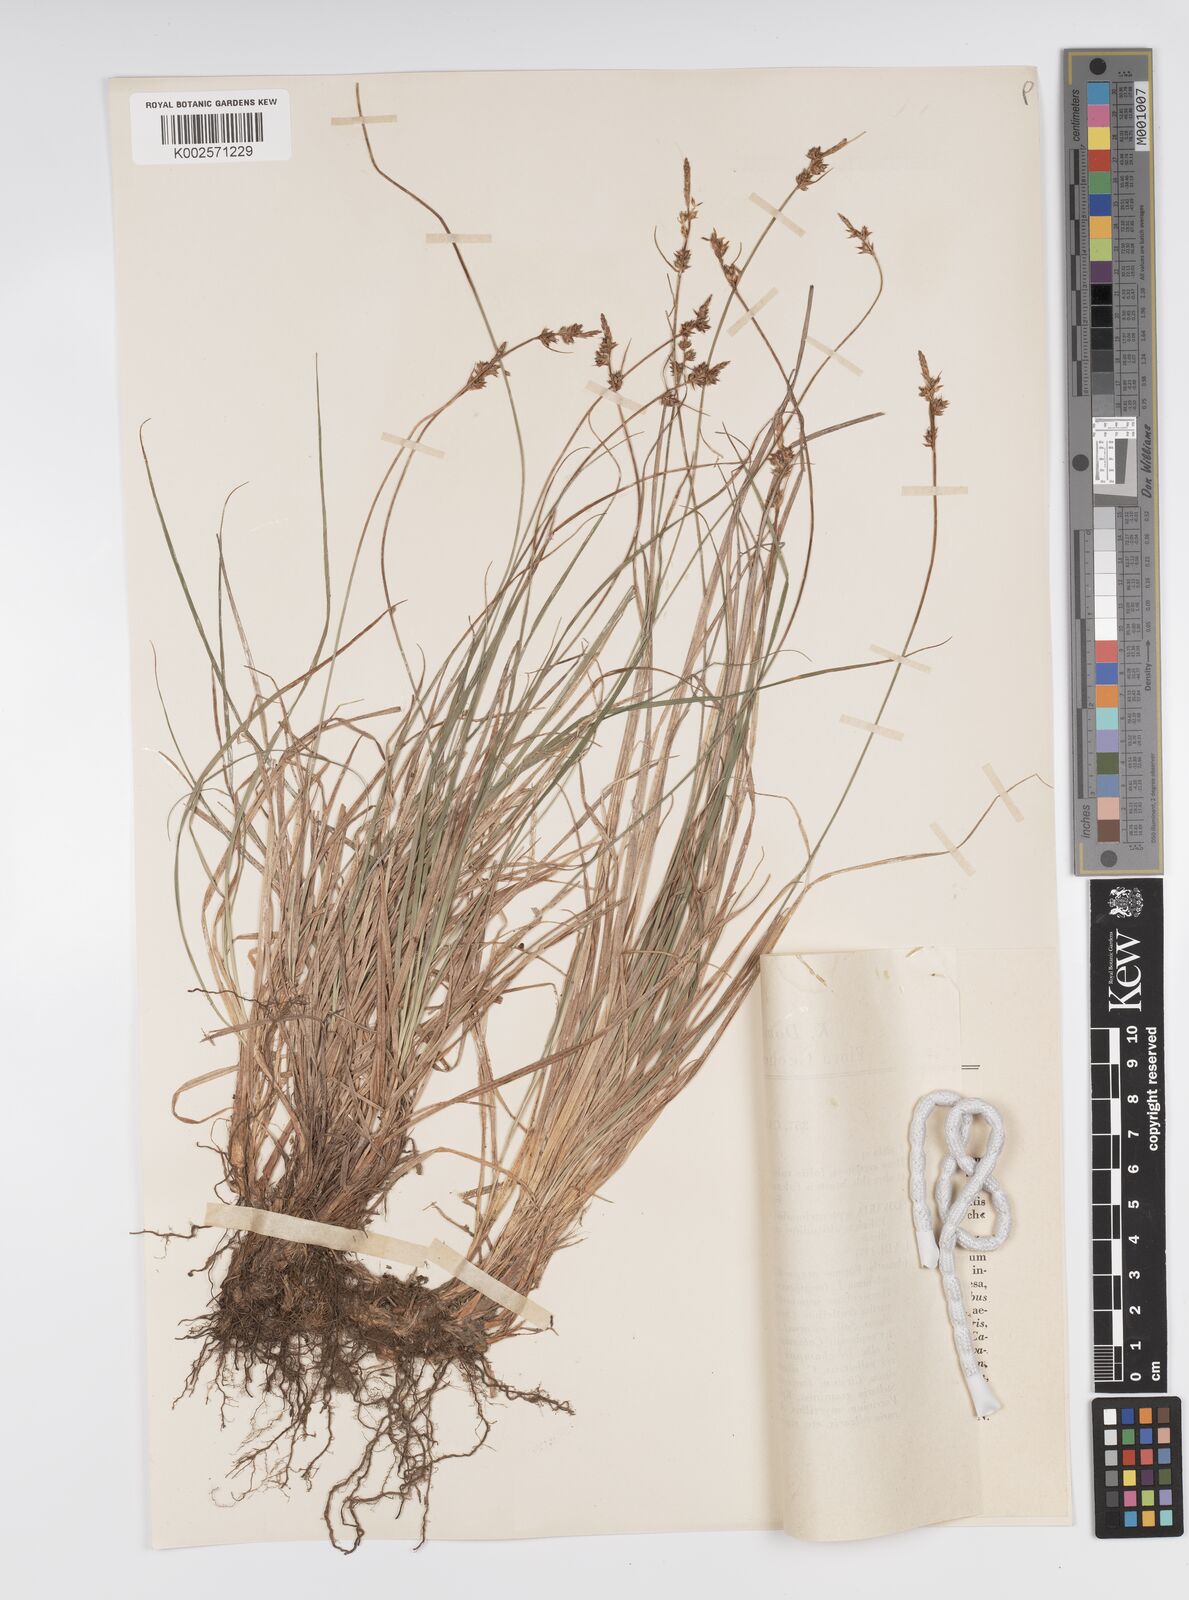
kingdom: Plantae
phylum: Tracheophyta
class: Liliopsida
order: Poales
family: Cyperaceae
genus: Carex
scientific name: Carex pilulifera
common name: Pill sedge
